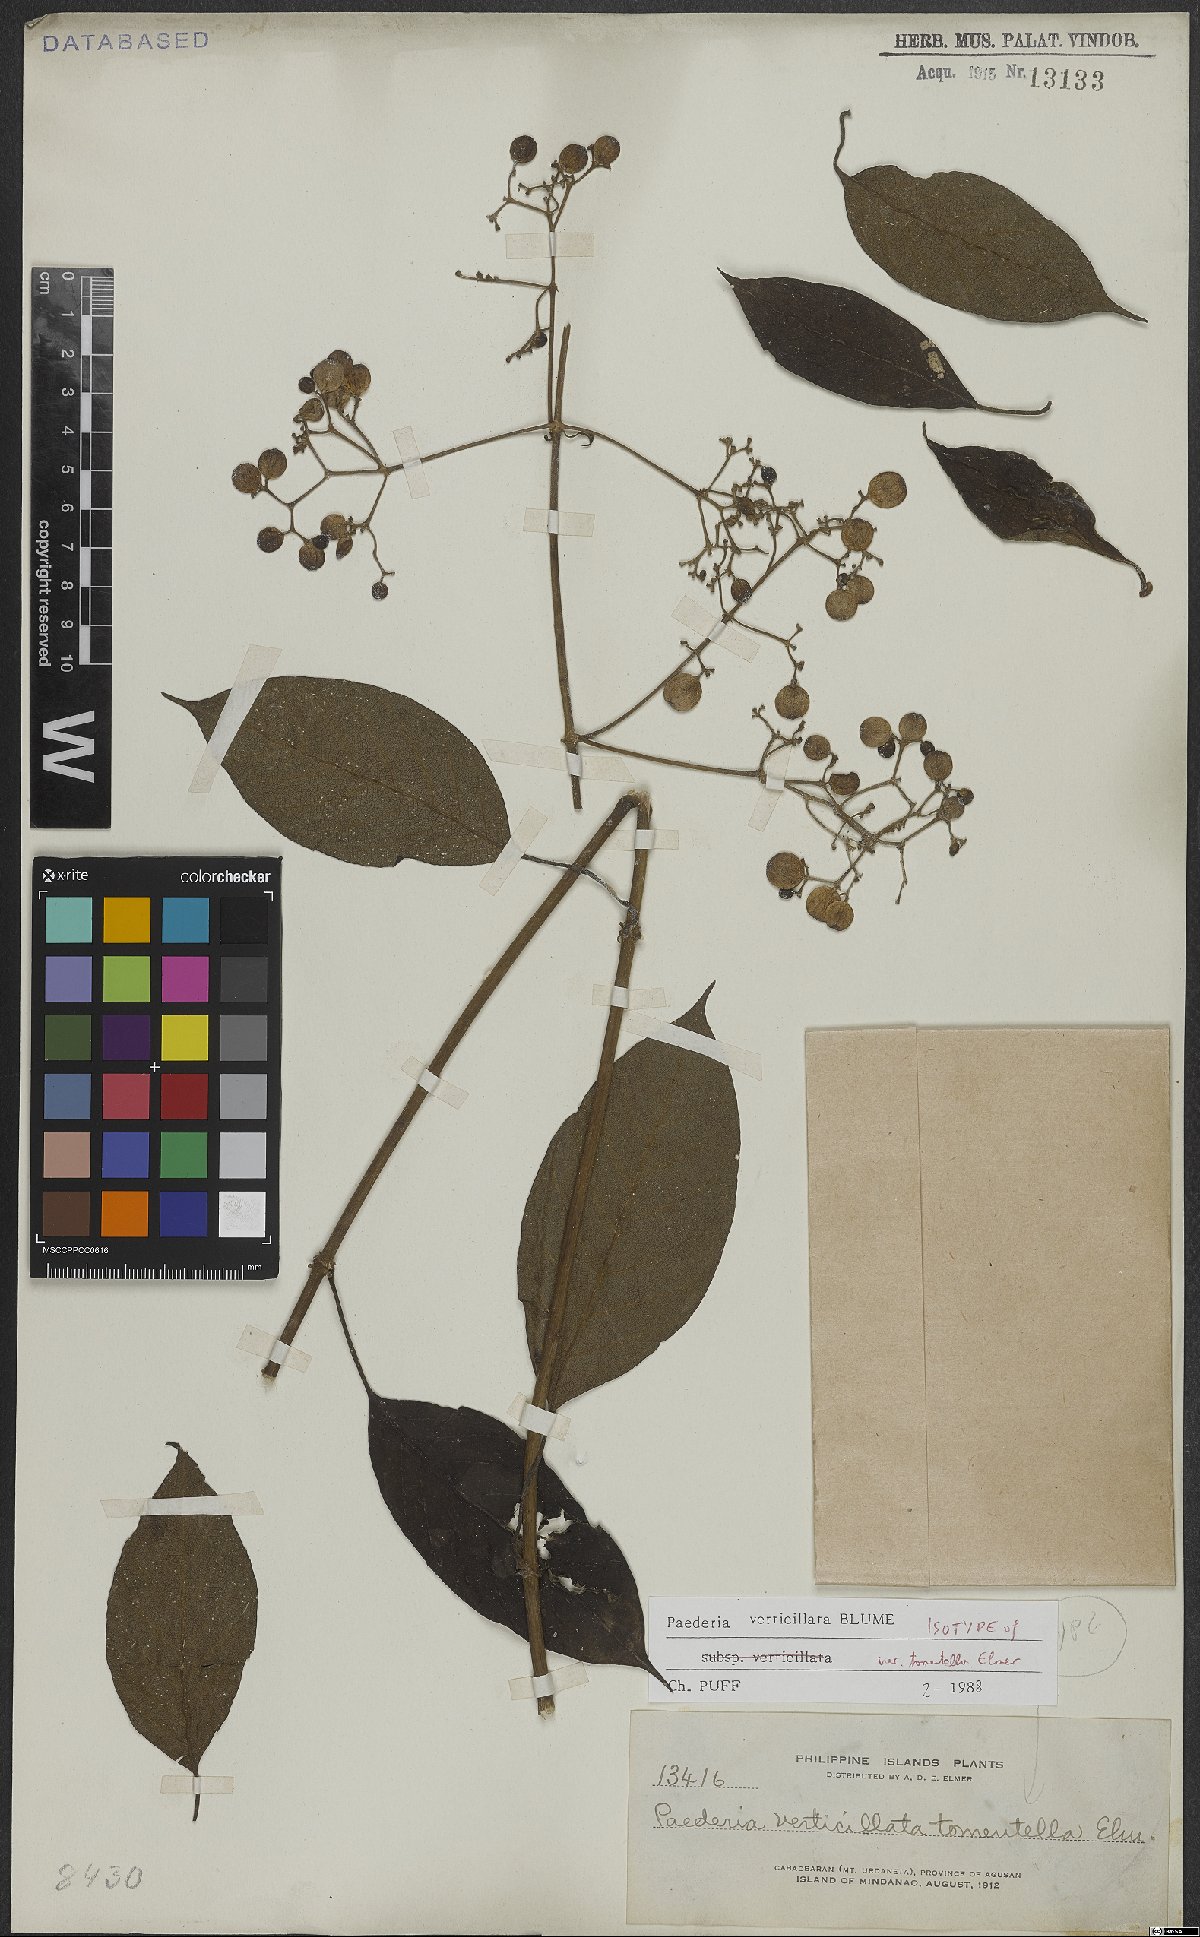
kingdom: Plantae
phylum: Tracheophyta
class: Magnoliopsida
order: Gentianales
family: Rubiaceae
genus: Paederia
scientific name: Paederia verticillata
